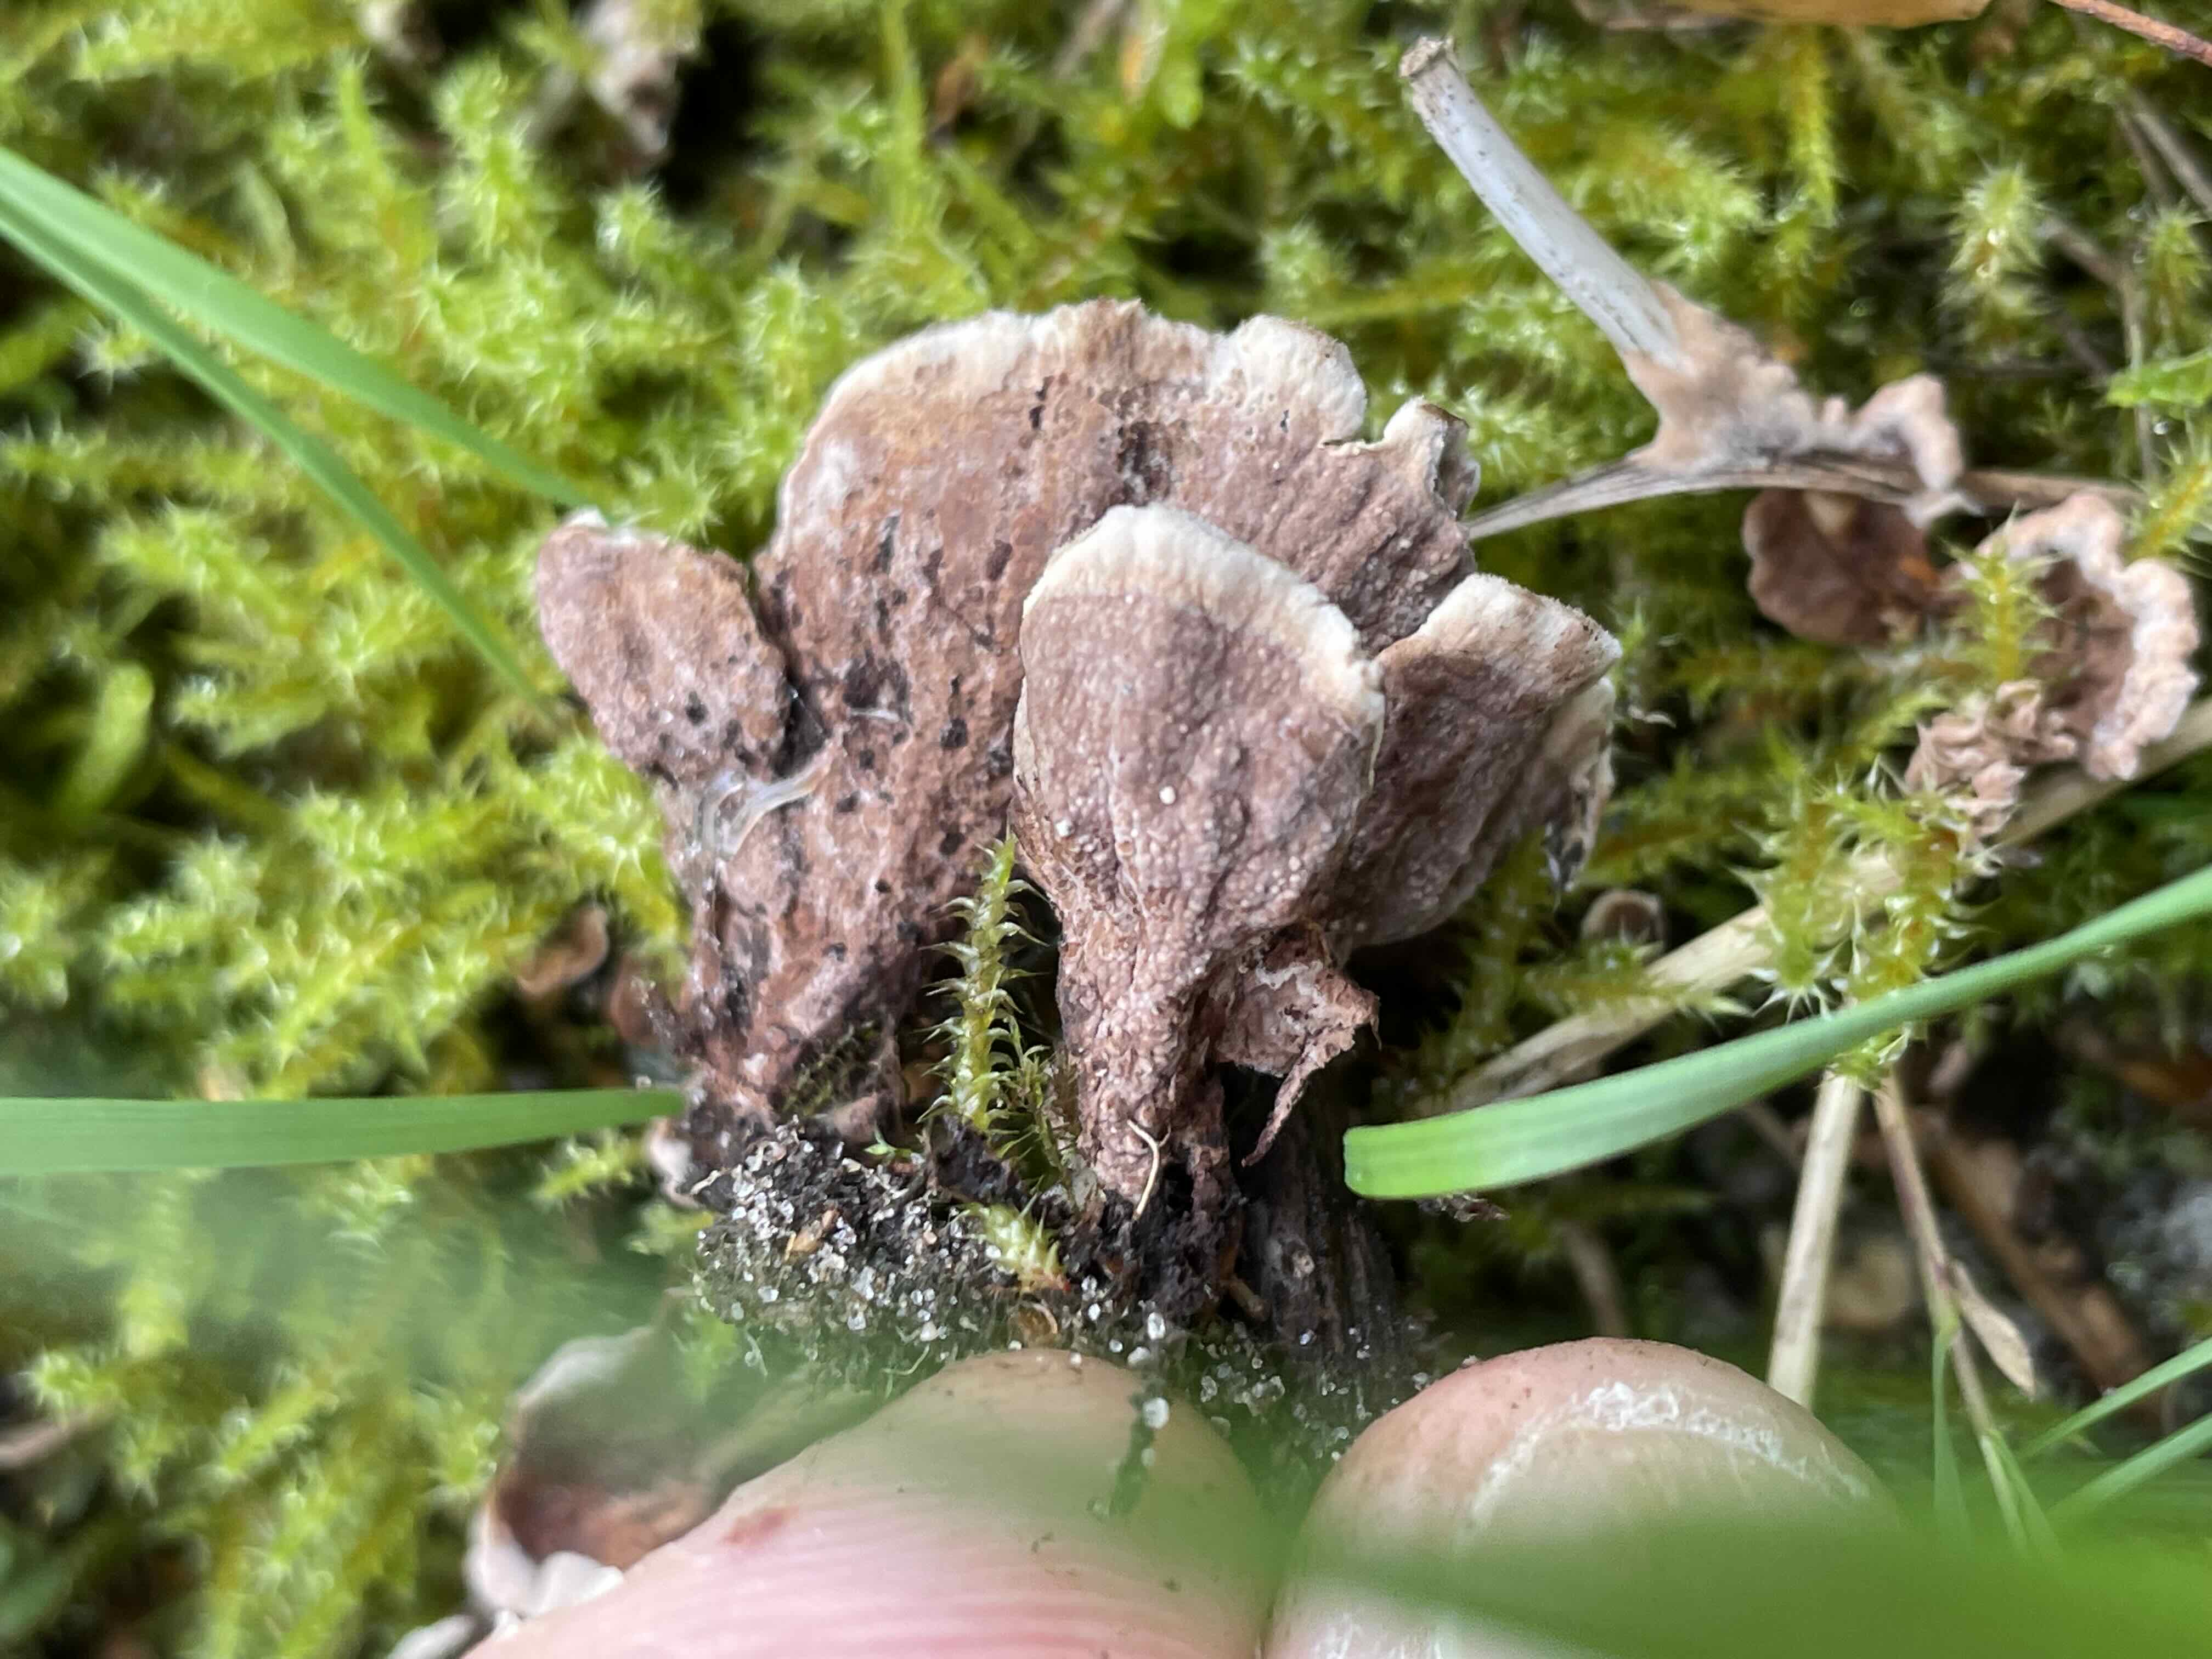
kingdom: Fungi
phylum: Basidiomycota
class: Agaricomycetes
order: Thelephorales
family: Thelephoraceae
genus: Thelephora
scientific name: Thelephora terrestris
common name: fliget frynsesvamp
